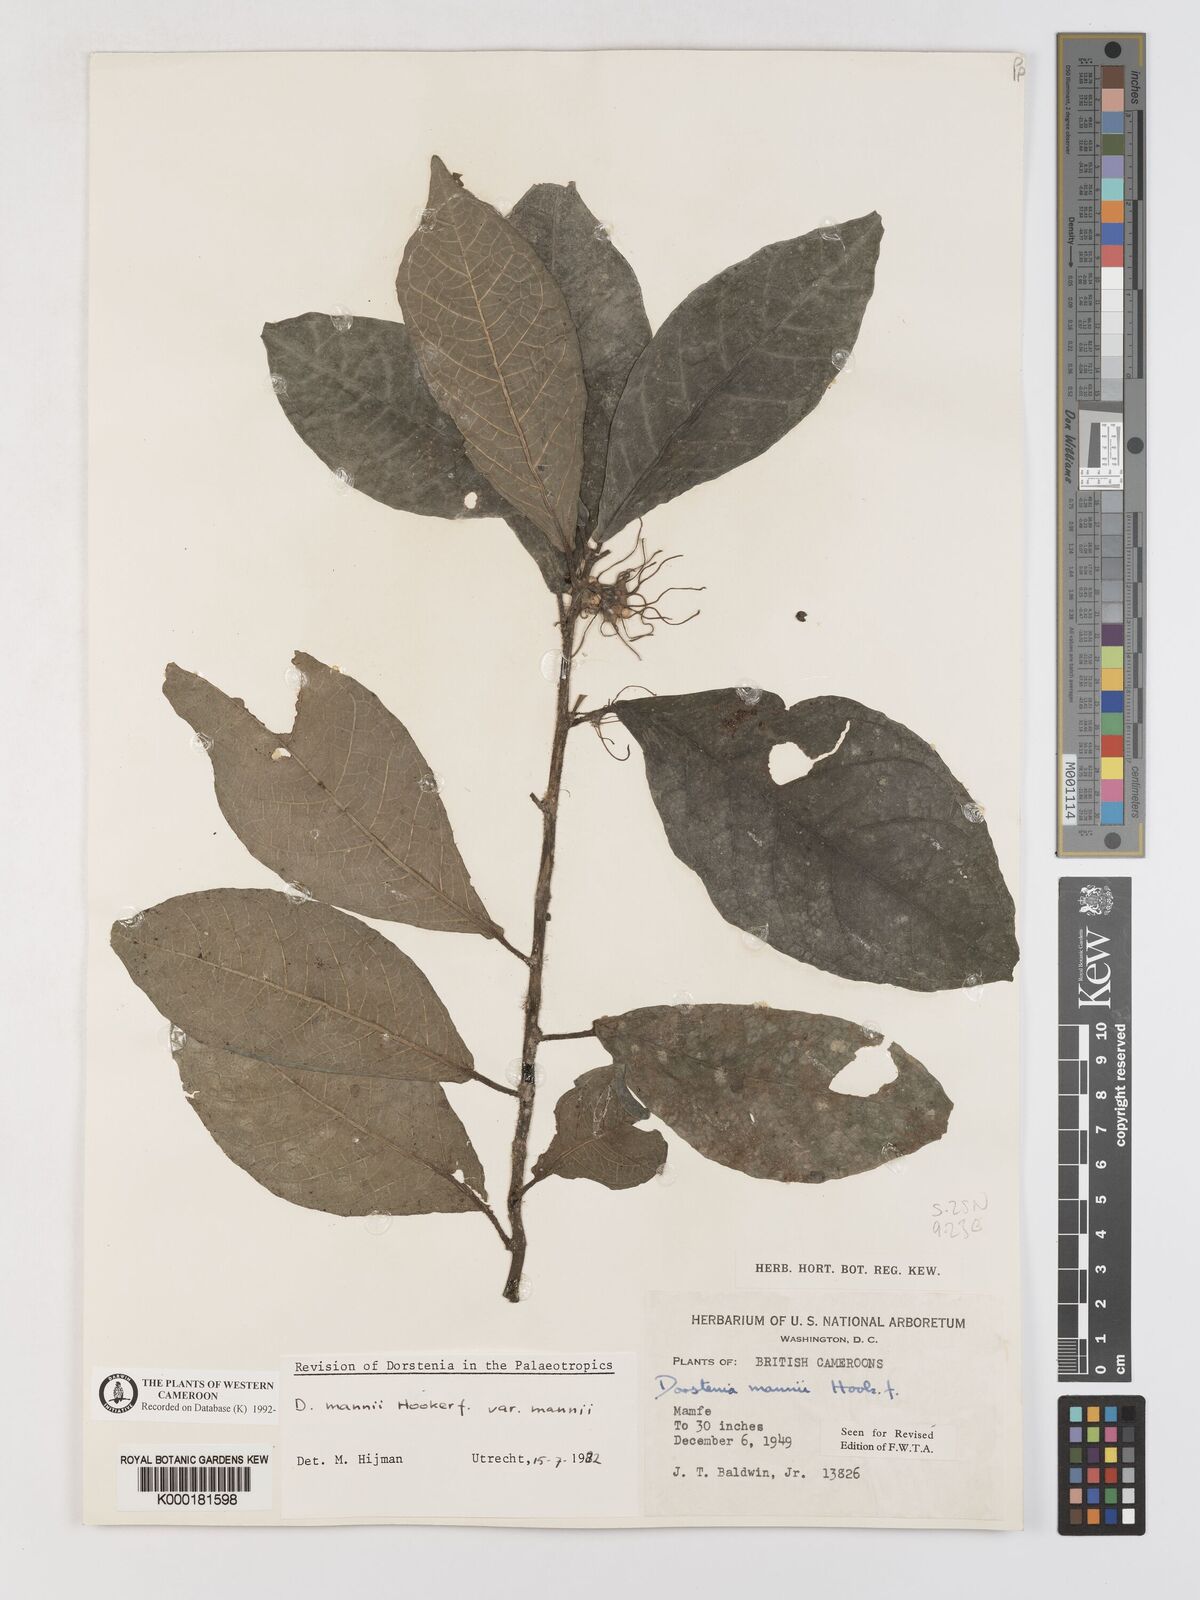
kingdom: Plantae
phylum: Tracheophyta
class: Magnoliopsida
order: Rosales
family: Moraceae
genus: Dorstenia
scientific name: Dorstenia mannii
